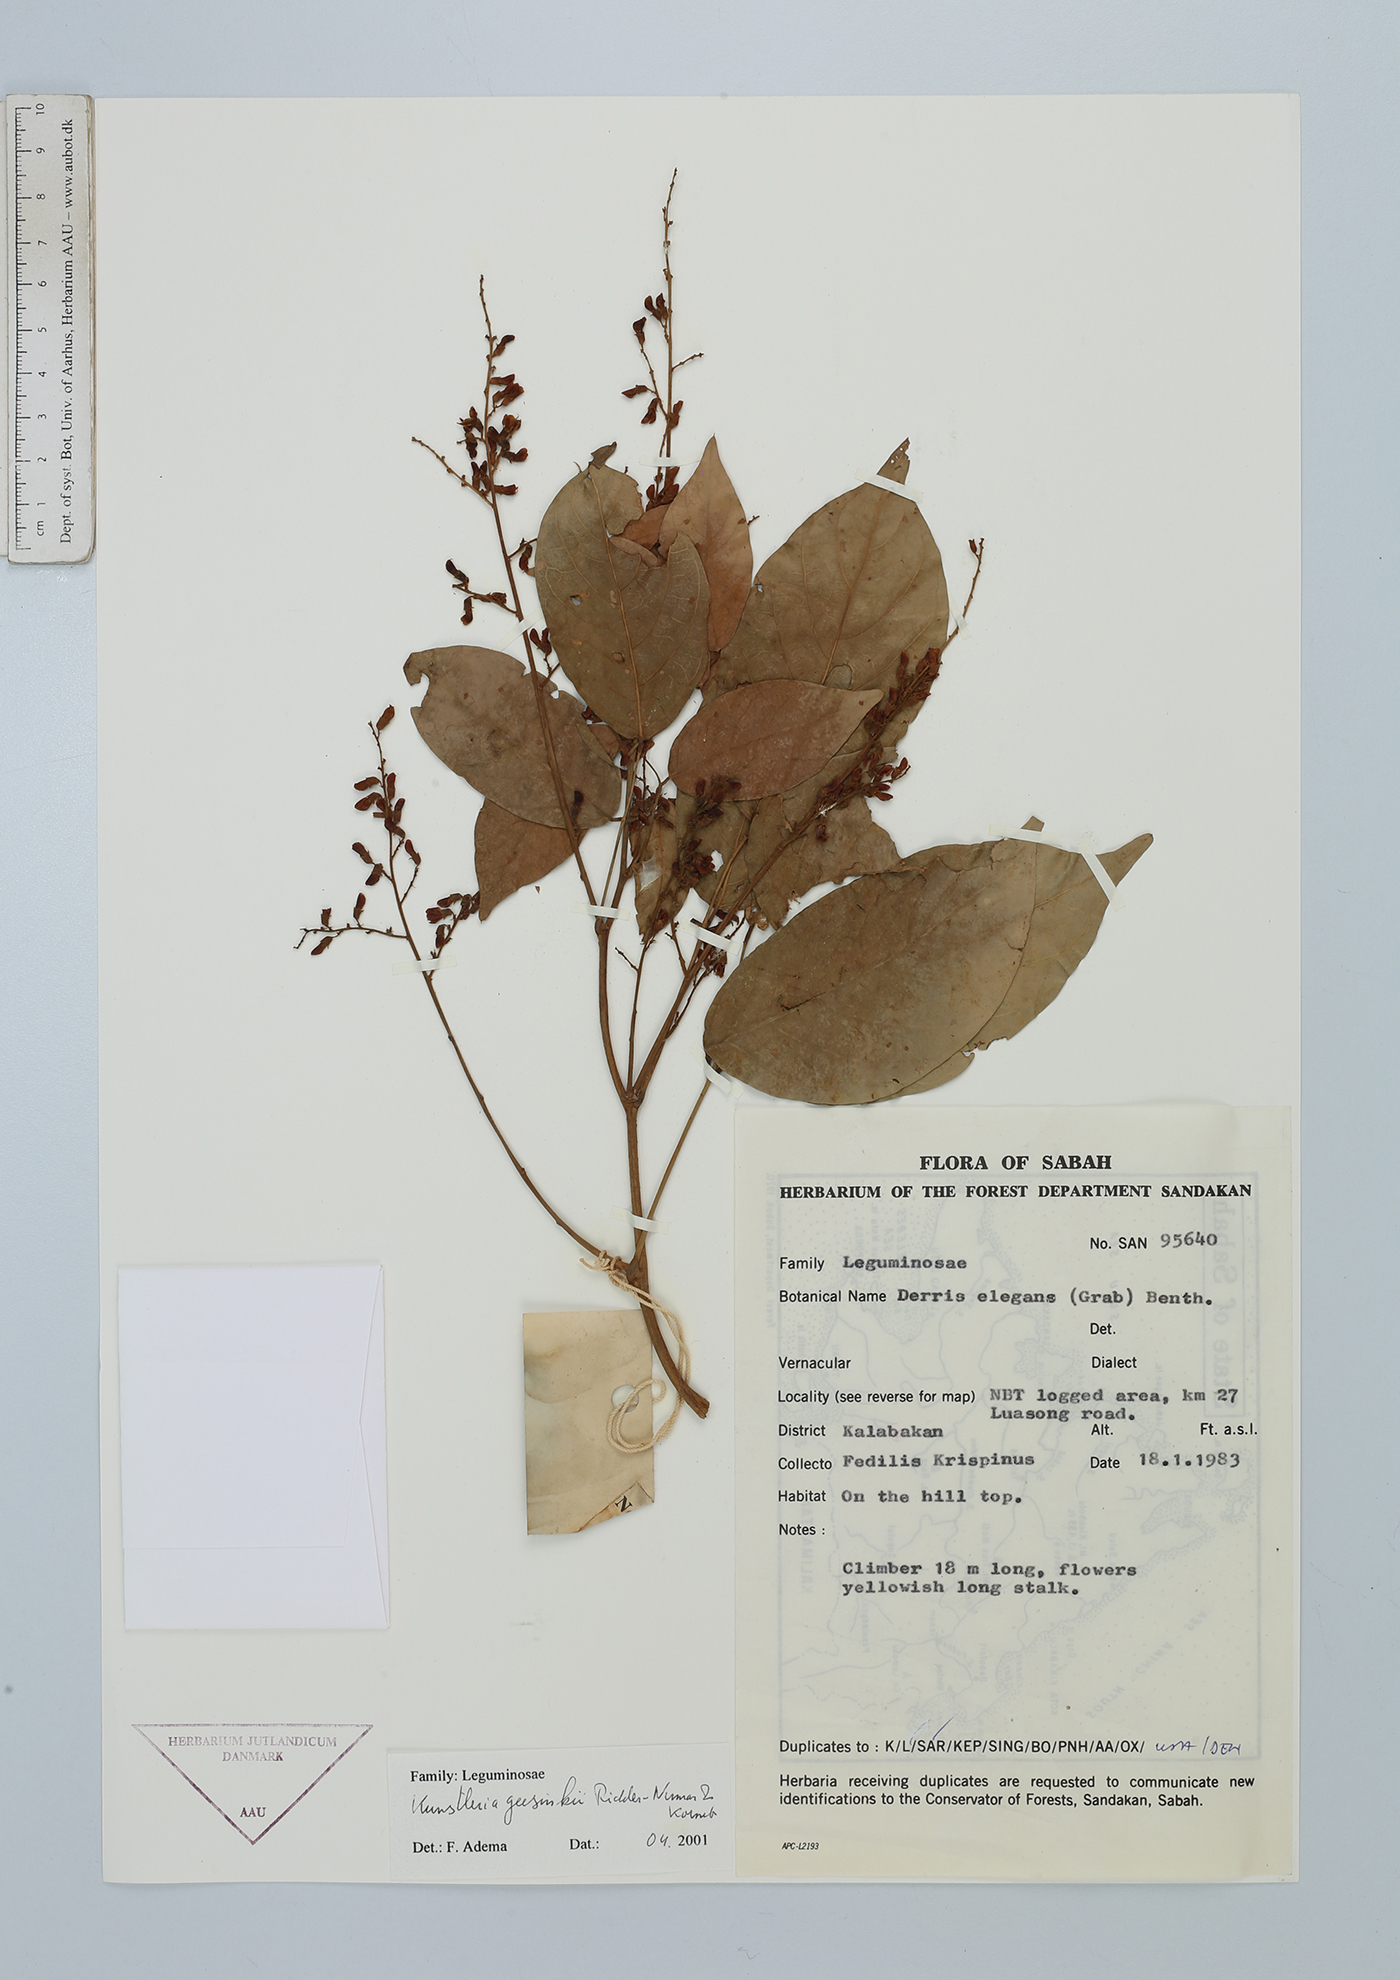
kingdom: Plantae
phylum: Tracheophyta
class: Magnoliopsida
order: Fabales
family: Fabaceae
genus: Kunstleria
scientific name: Kunstleria geesinkii
